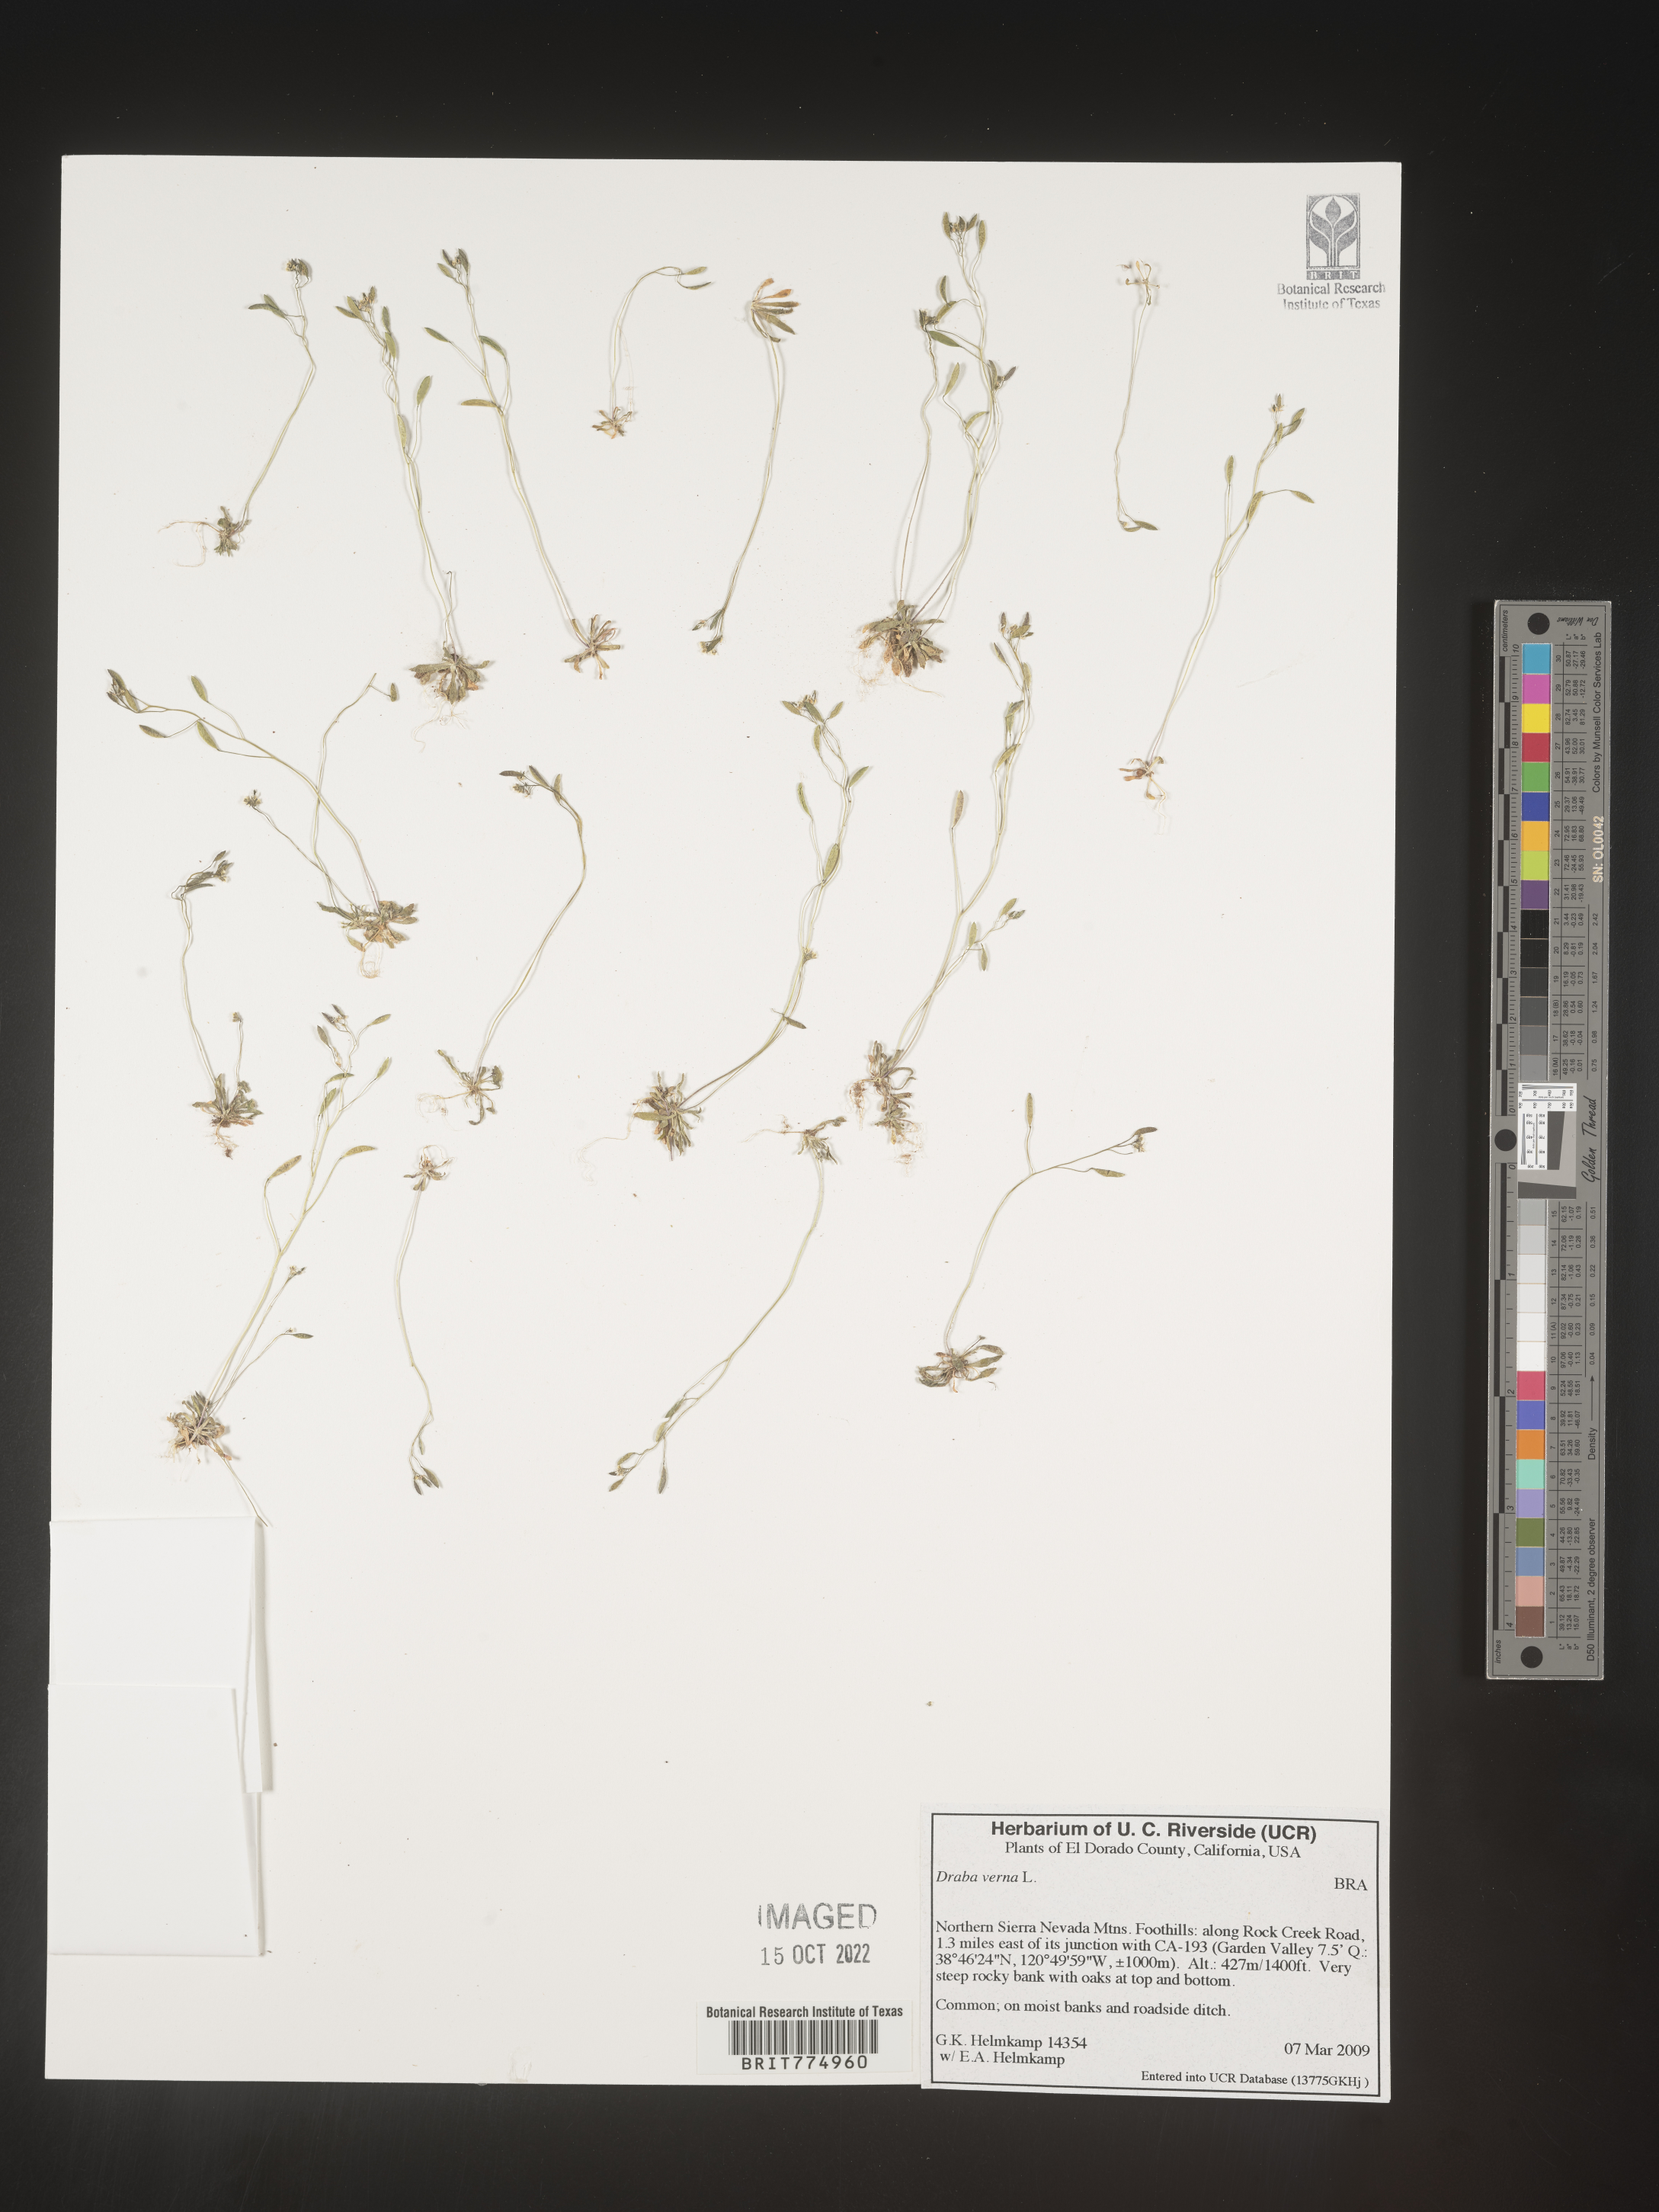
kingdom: Plantae
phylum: Tracheophyta
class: Magnoliopsida
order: Brassicales
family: Brassicaceae
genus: Draba
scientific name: Draba verna
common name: Spring draba
